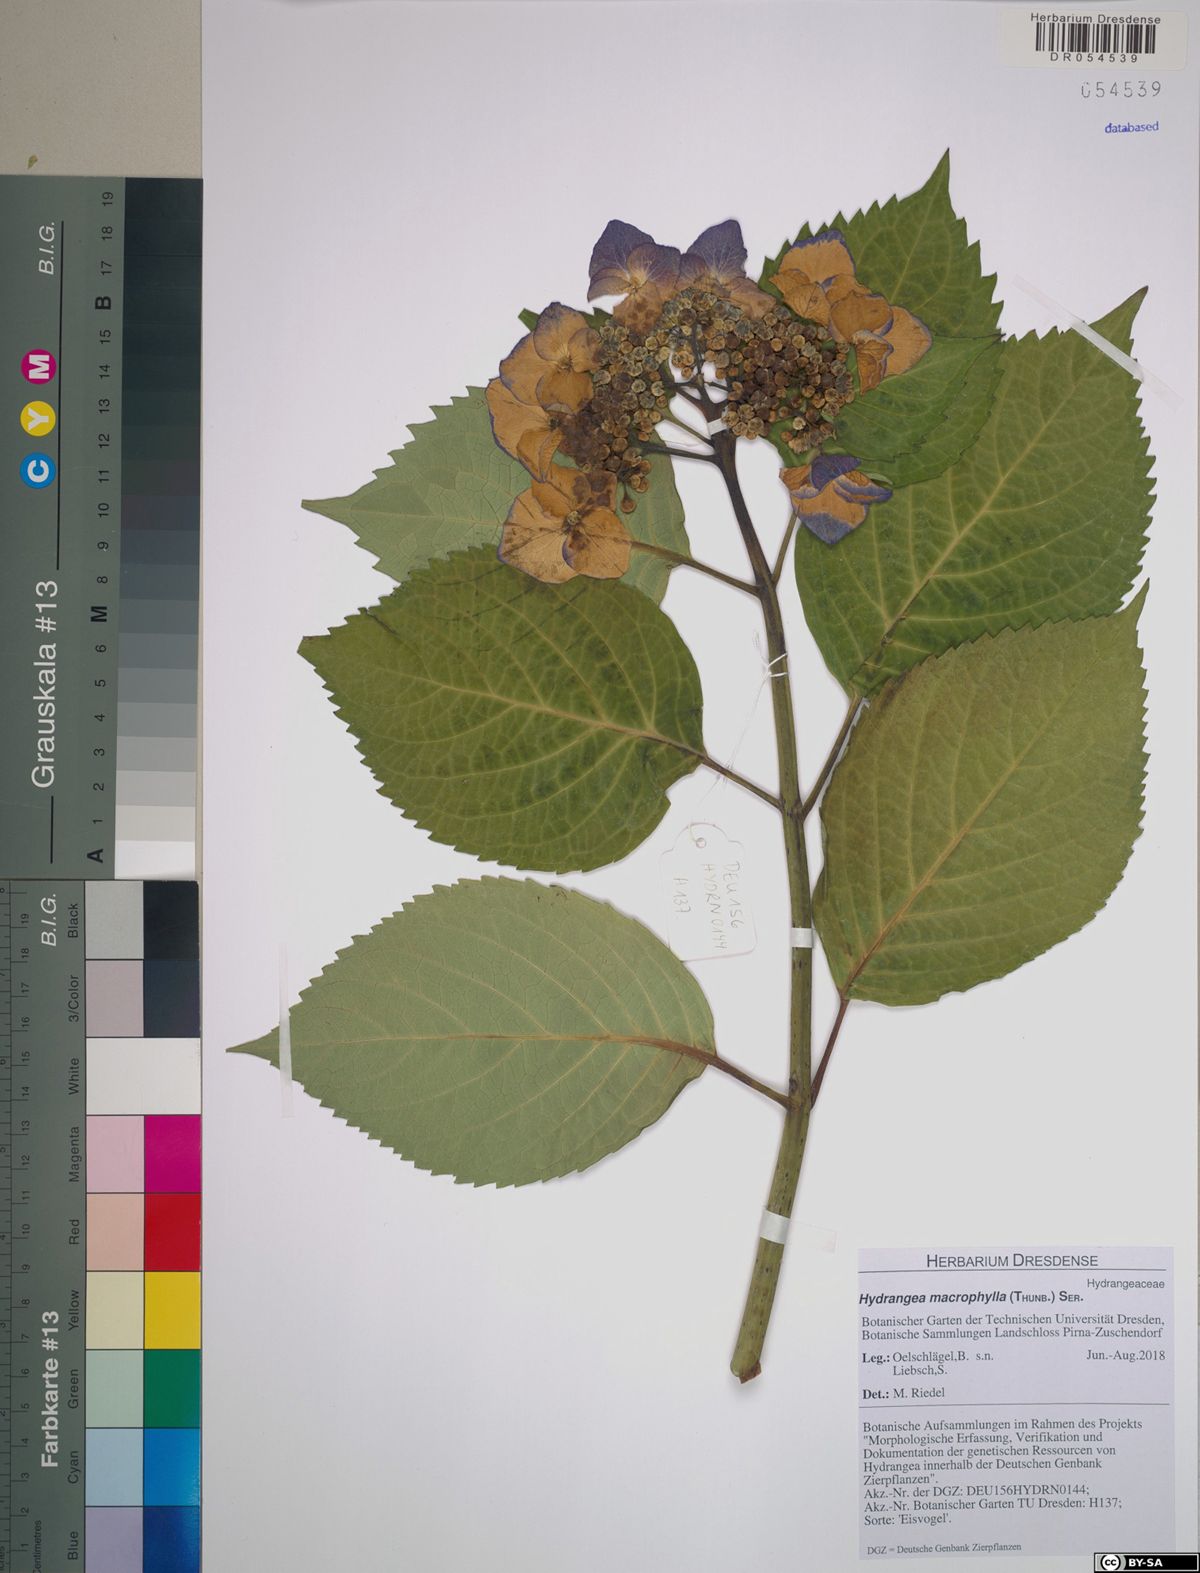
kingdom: Plantae
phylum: Tracheophyta
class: Magnoliopsida
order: Cornales
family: Hydrangeaceae
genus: Hydrangea
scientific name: Hydrangea macrophylla
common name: Hydrangea
